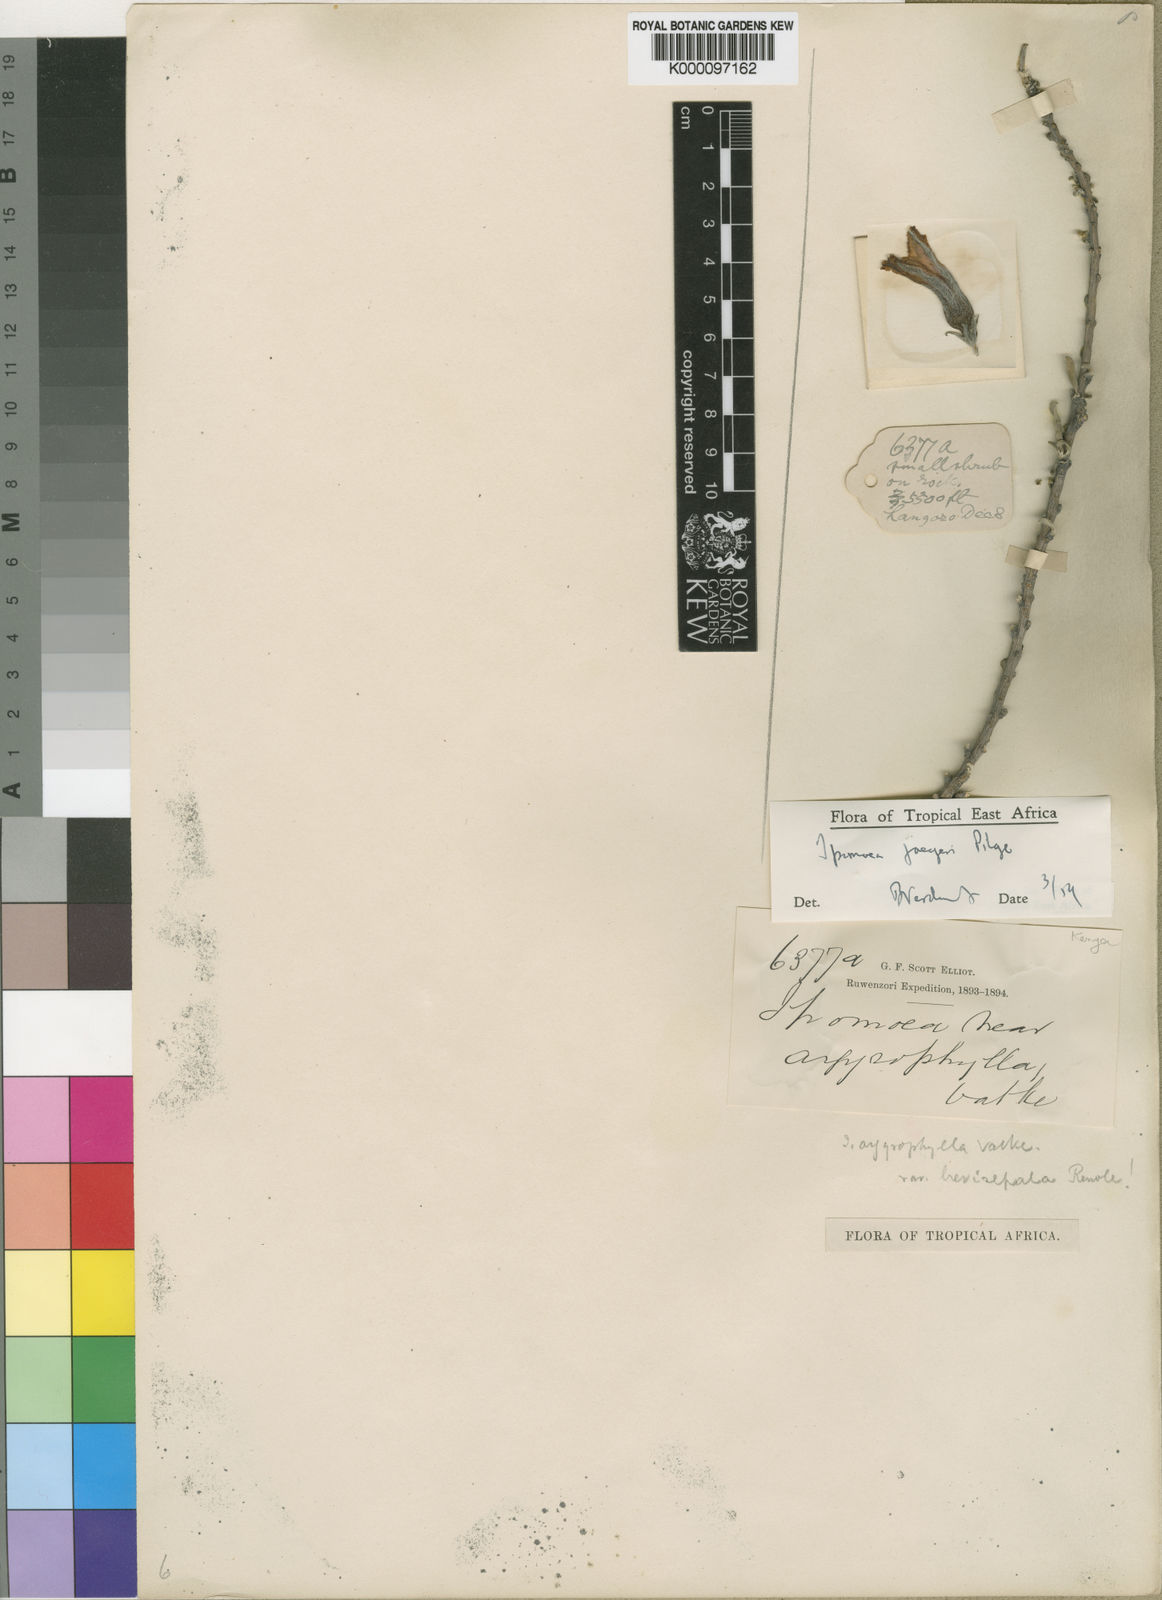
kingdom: Plantae
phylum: Tracheophyta
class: Magnoliopsida
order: Solanales
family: Convolvulaceae
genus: Ipomoea
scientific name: Ipomoea argyrophylla
